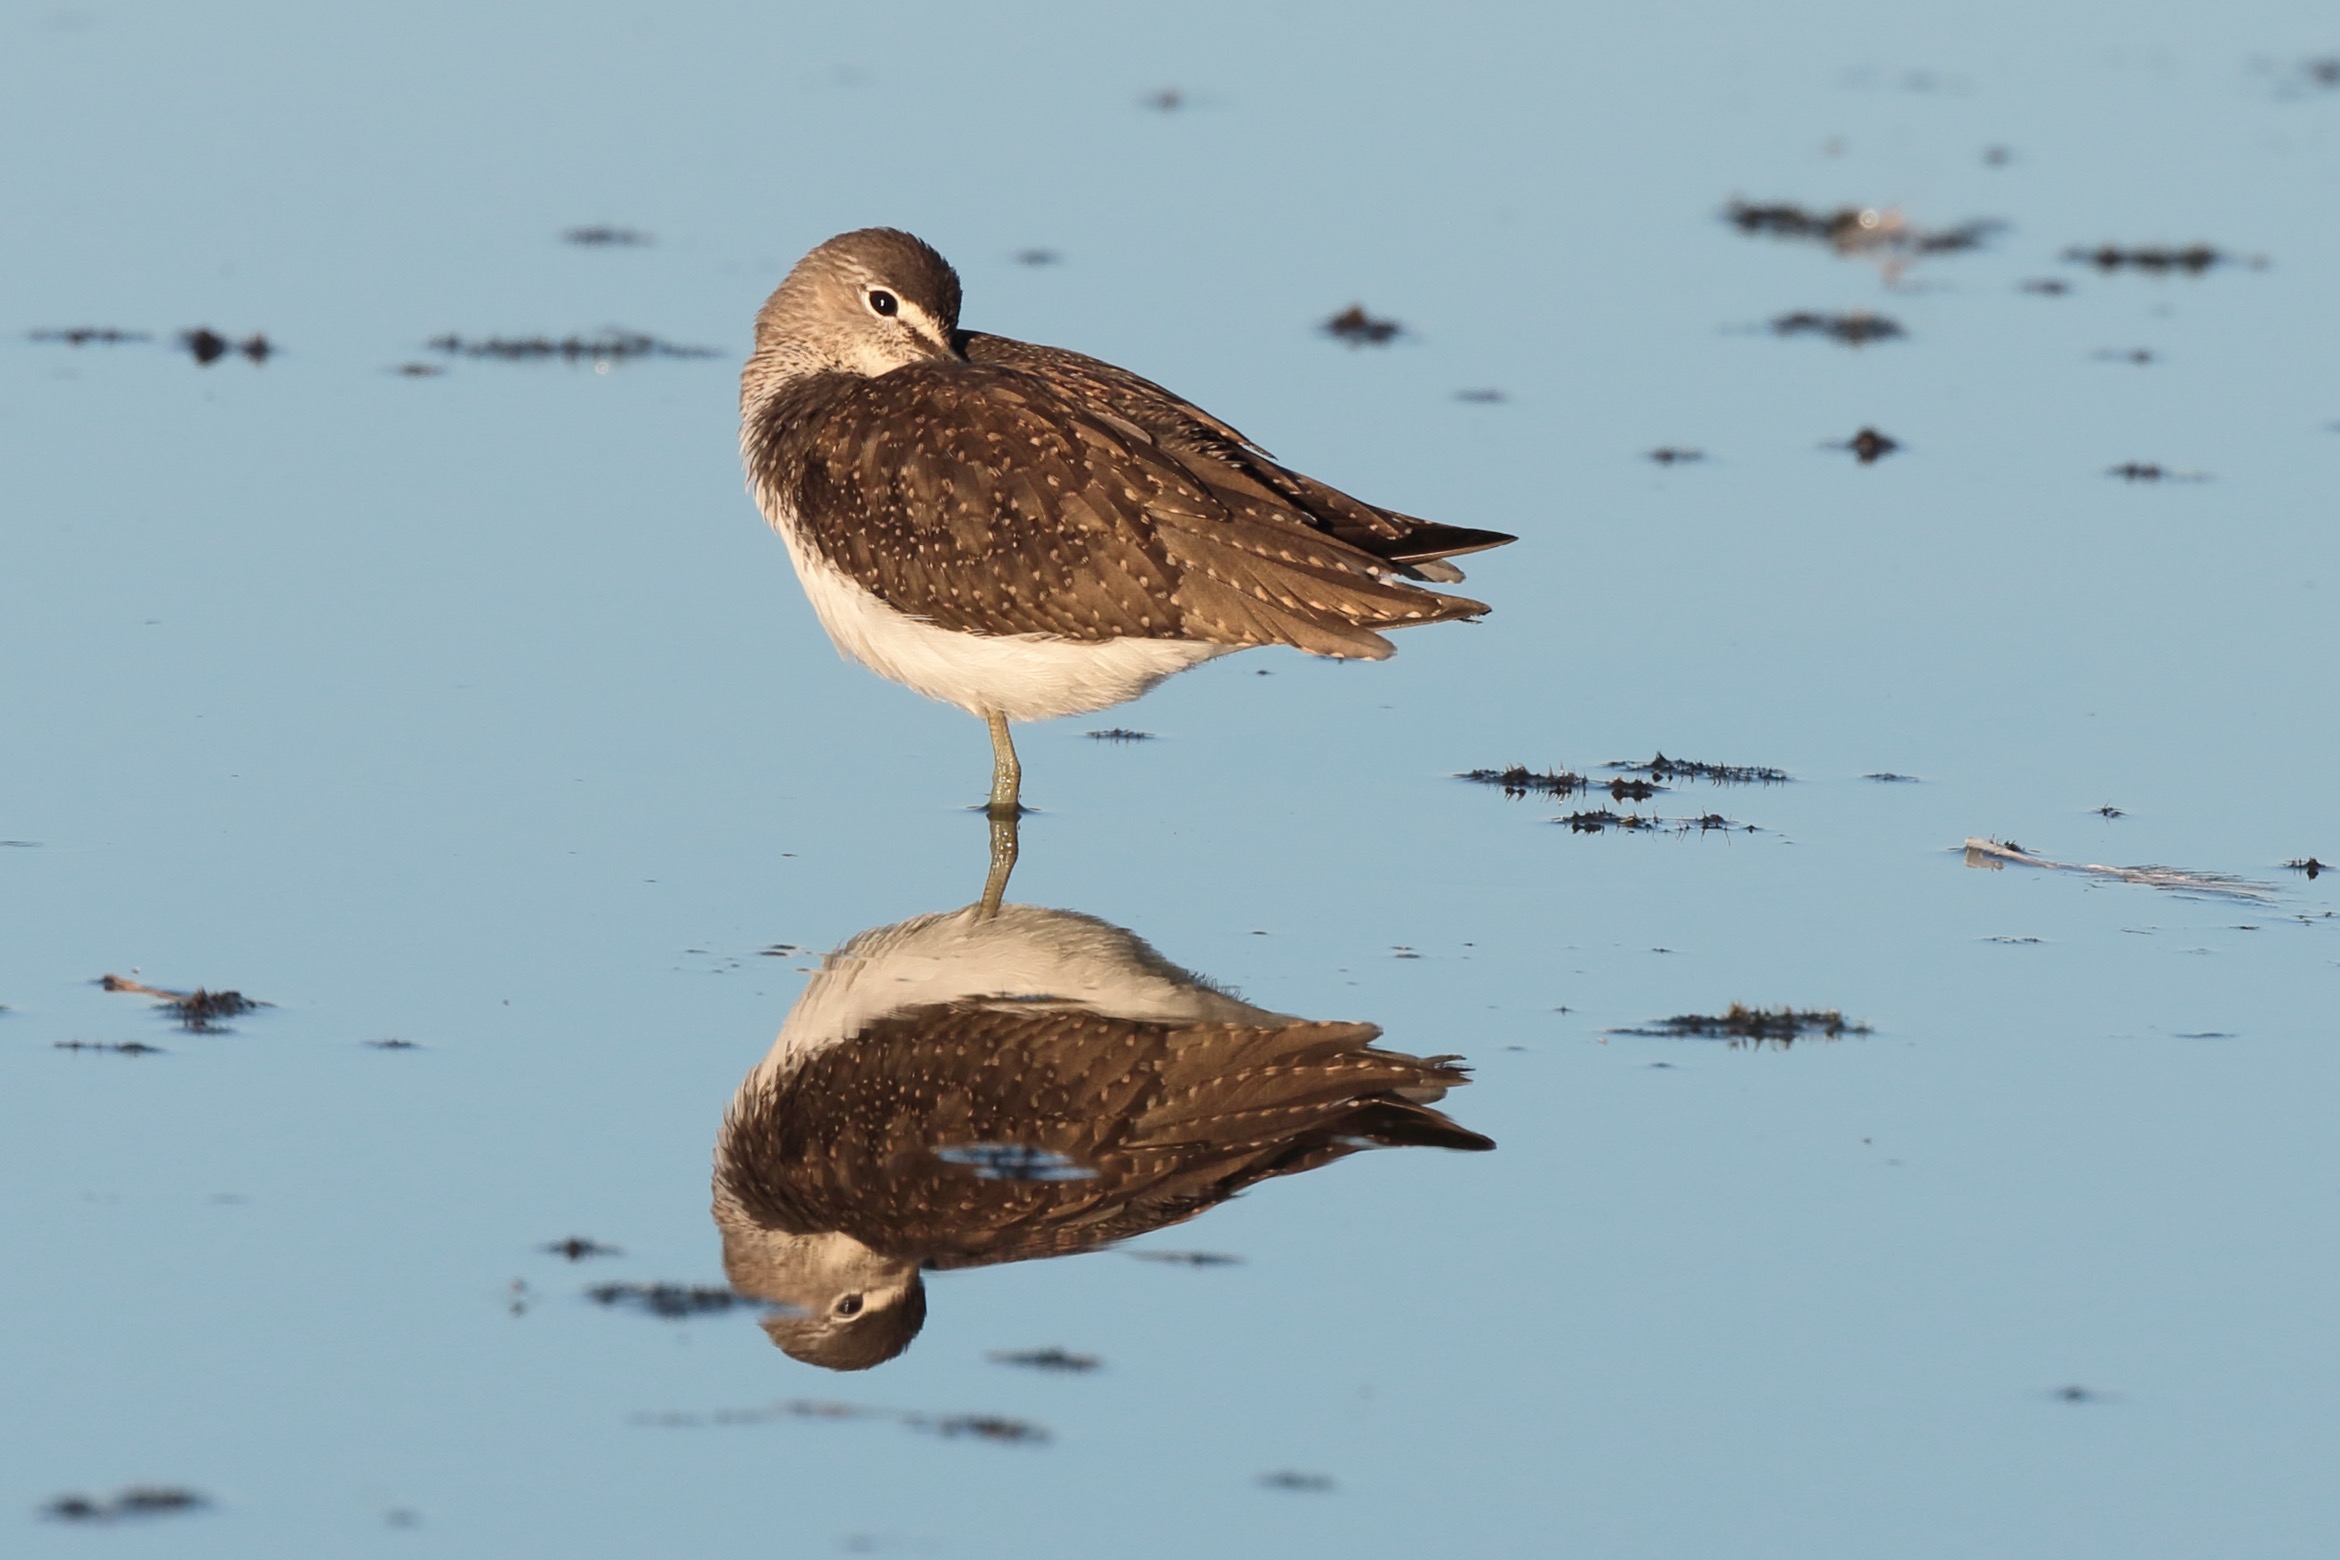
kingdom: Animalia
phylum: Chordata
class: Aves
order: Charadriiformes
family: Scolopacidae
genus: Tringa
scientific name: Tringa ochropus
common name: Svaleklire
